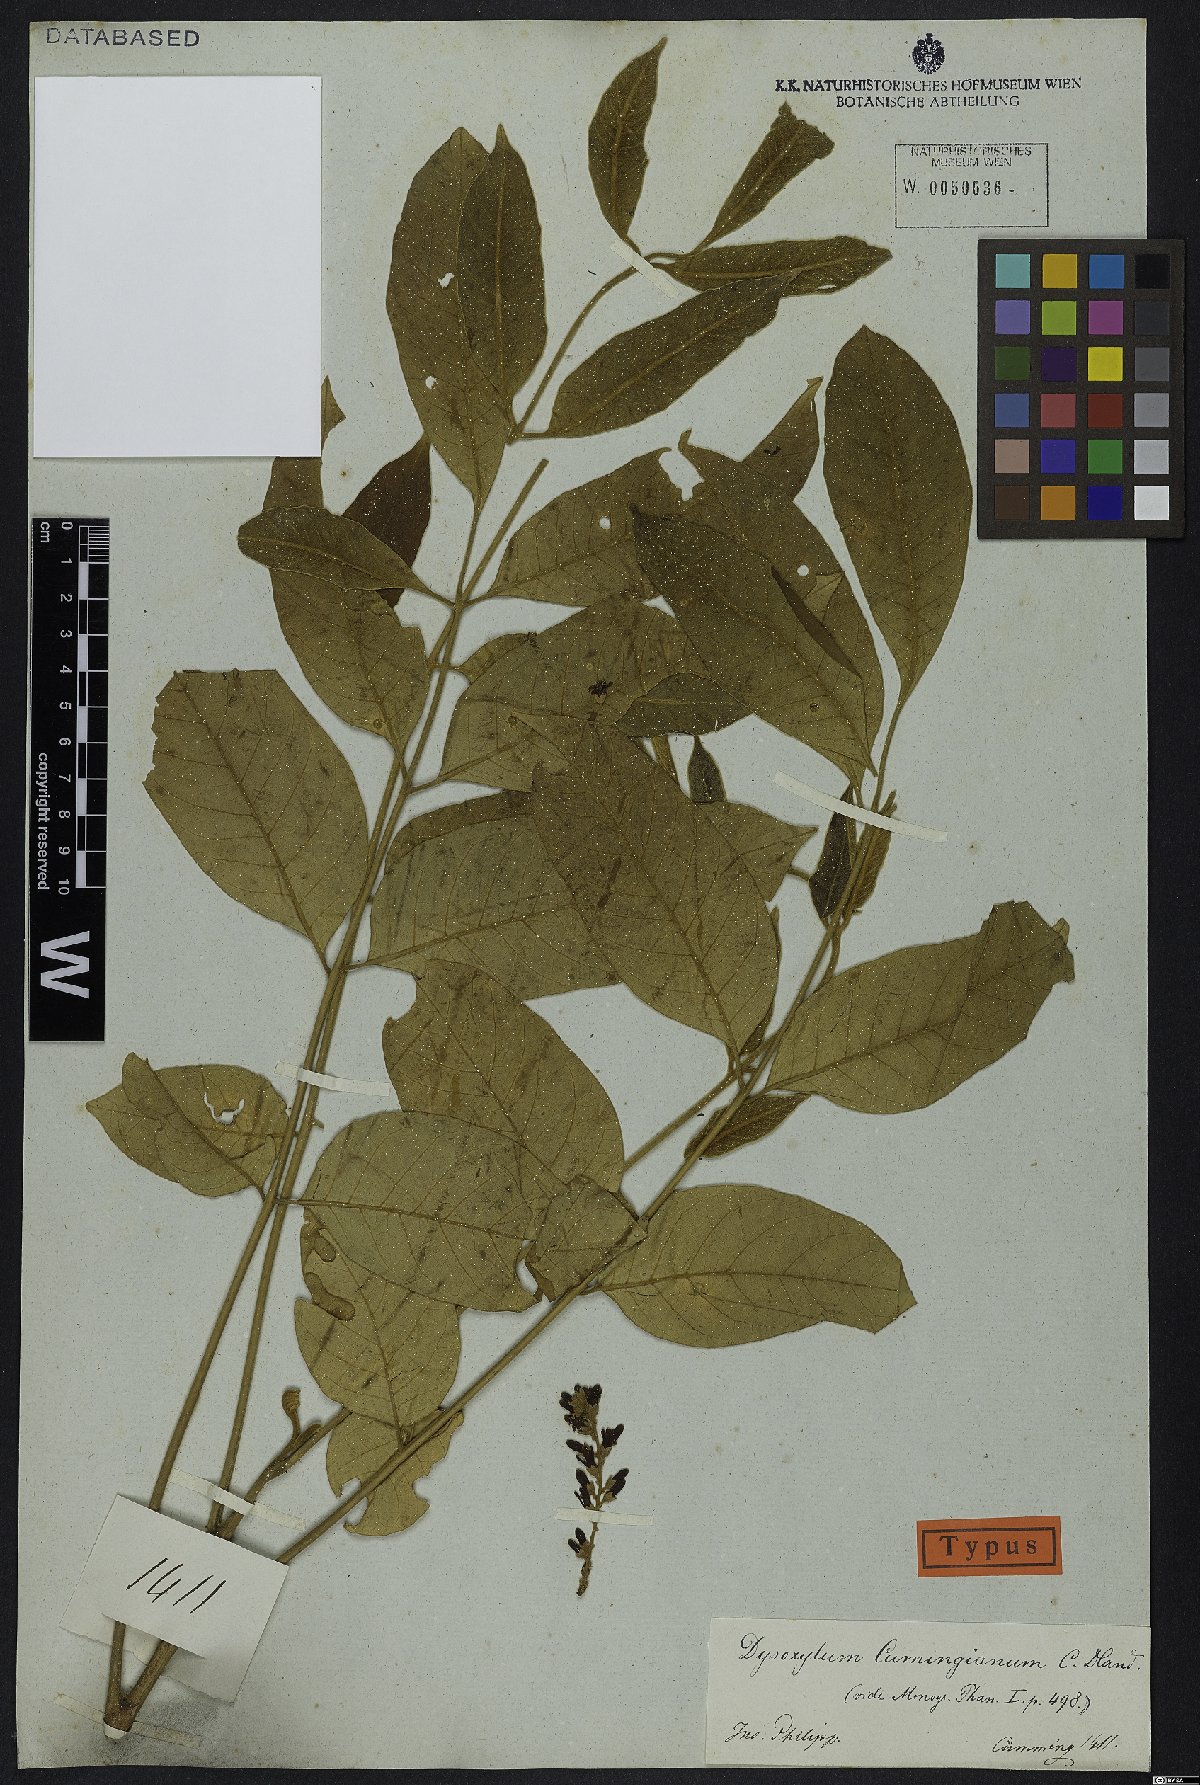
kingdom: Plantae
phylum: Tracheophyta
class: Magnoliopsida
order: Sapindales
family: Meliaceae
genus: Epicharis
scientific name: Epicharis cumingiana
